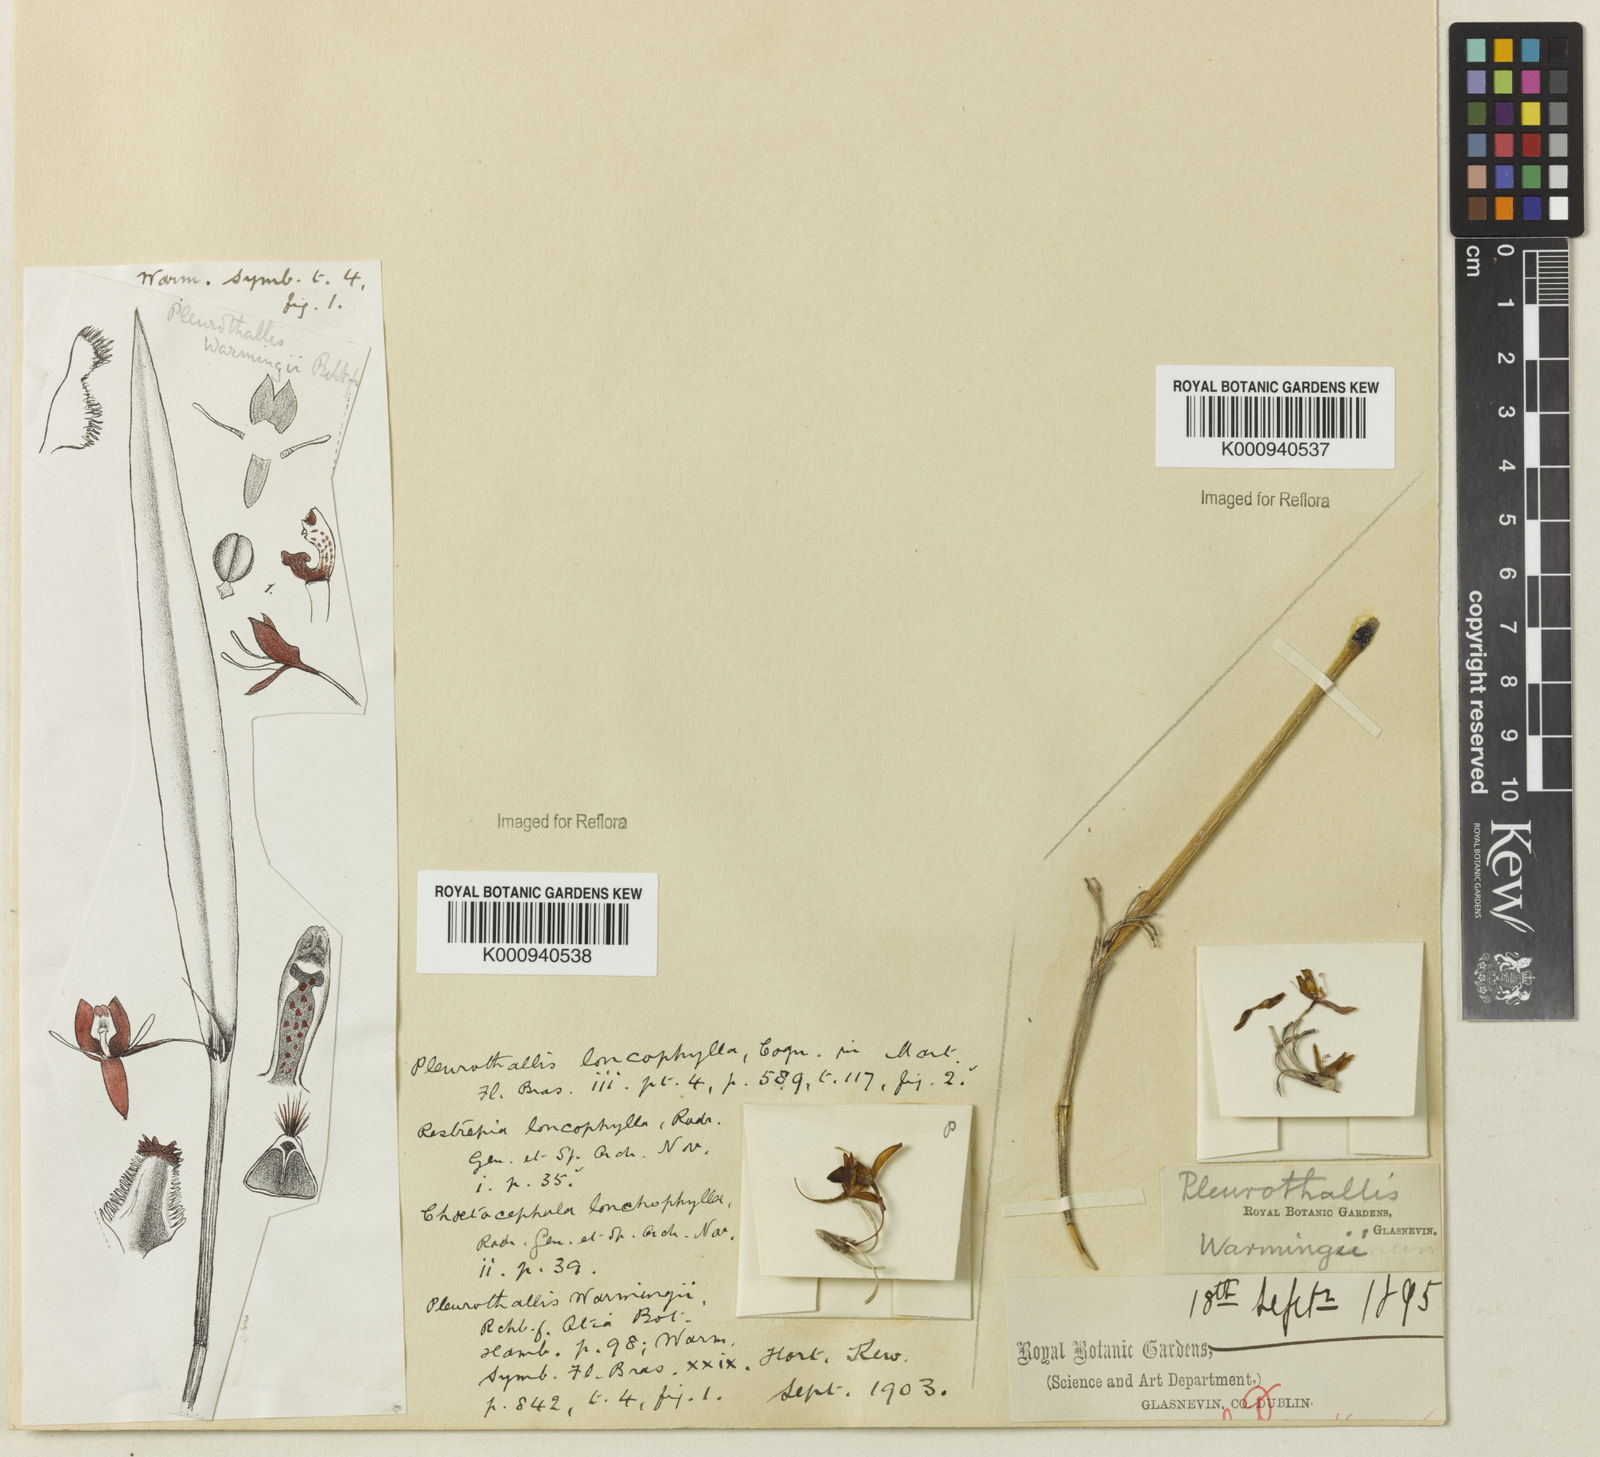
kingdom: Plantae
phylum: Tracheophyta
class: Liliopsida
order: Asparagales
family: Orchidaceae
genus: Myoxanthus
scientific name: Myoxanthus lonchophyllus
